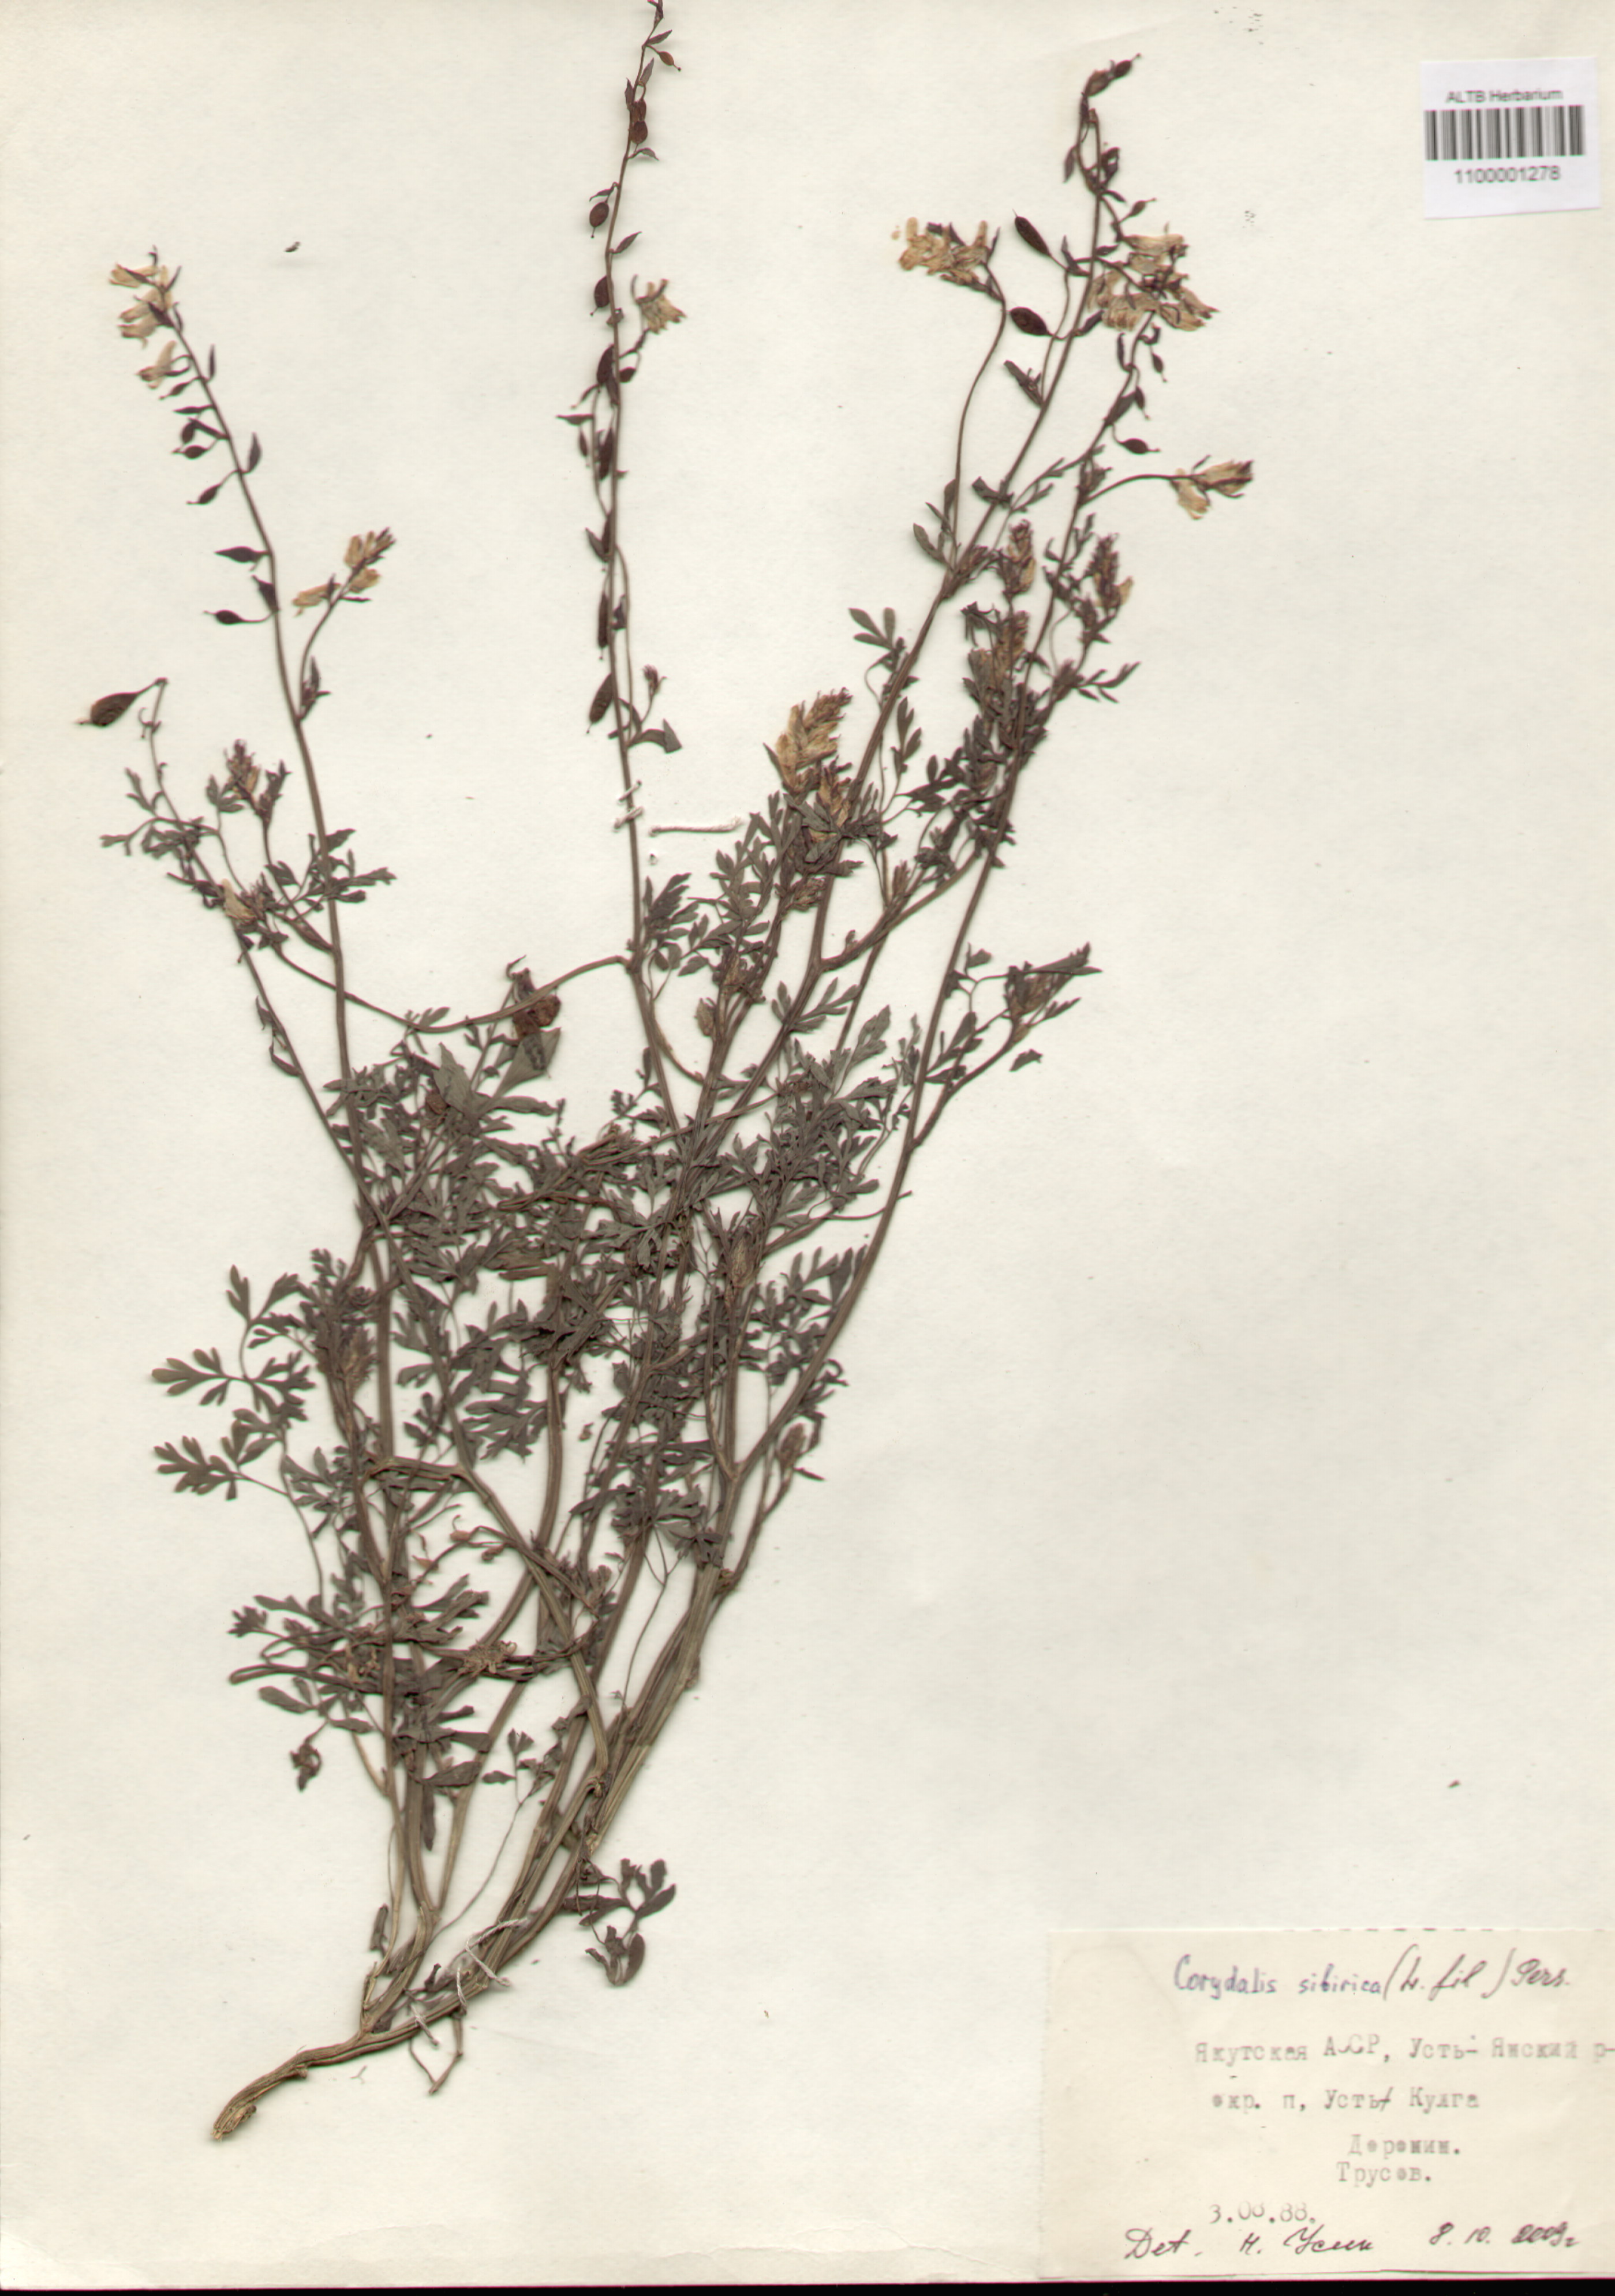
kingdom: Plantae
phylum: Tracheophyta
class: Magnoliopsida
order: Ranunculales
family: Papaveraceae
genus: Corydalis
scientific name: Corydalis sibirica
